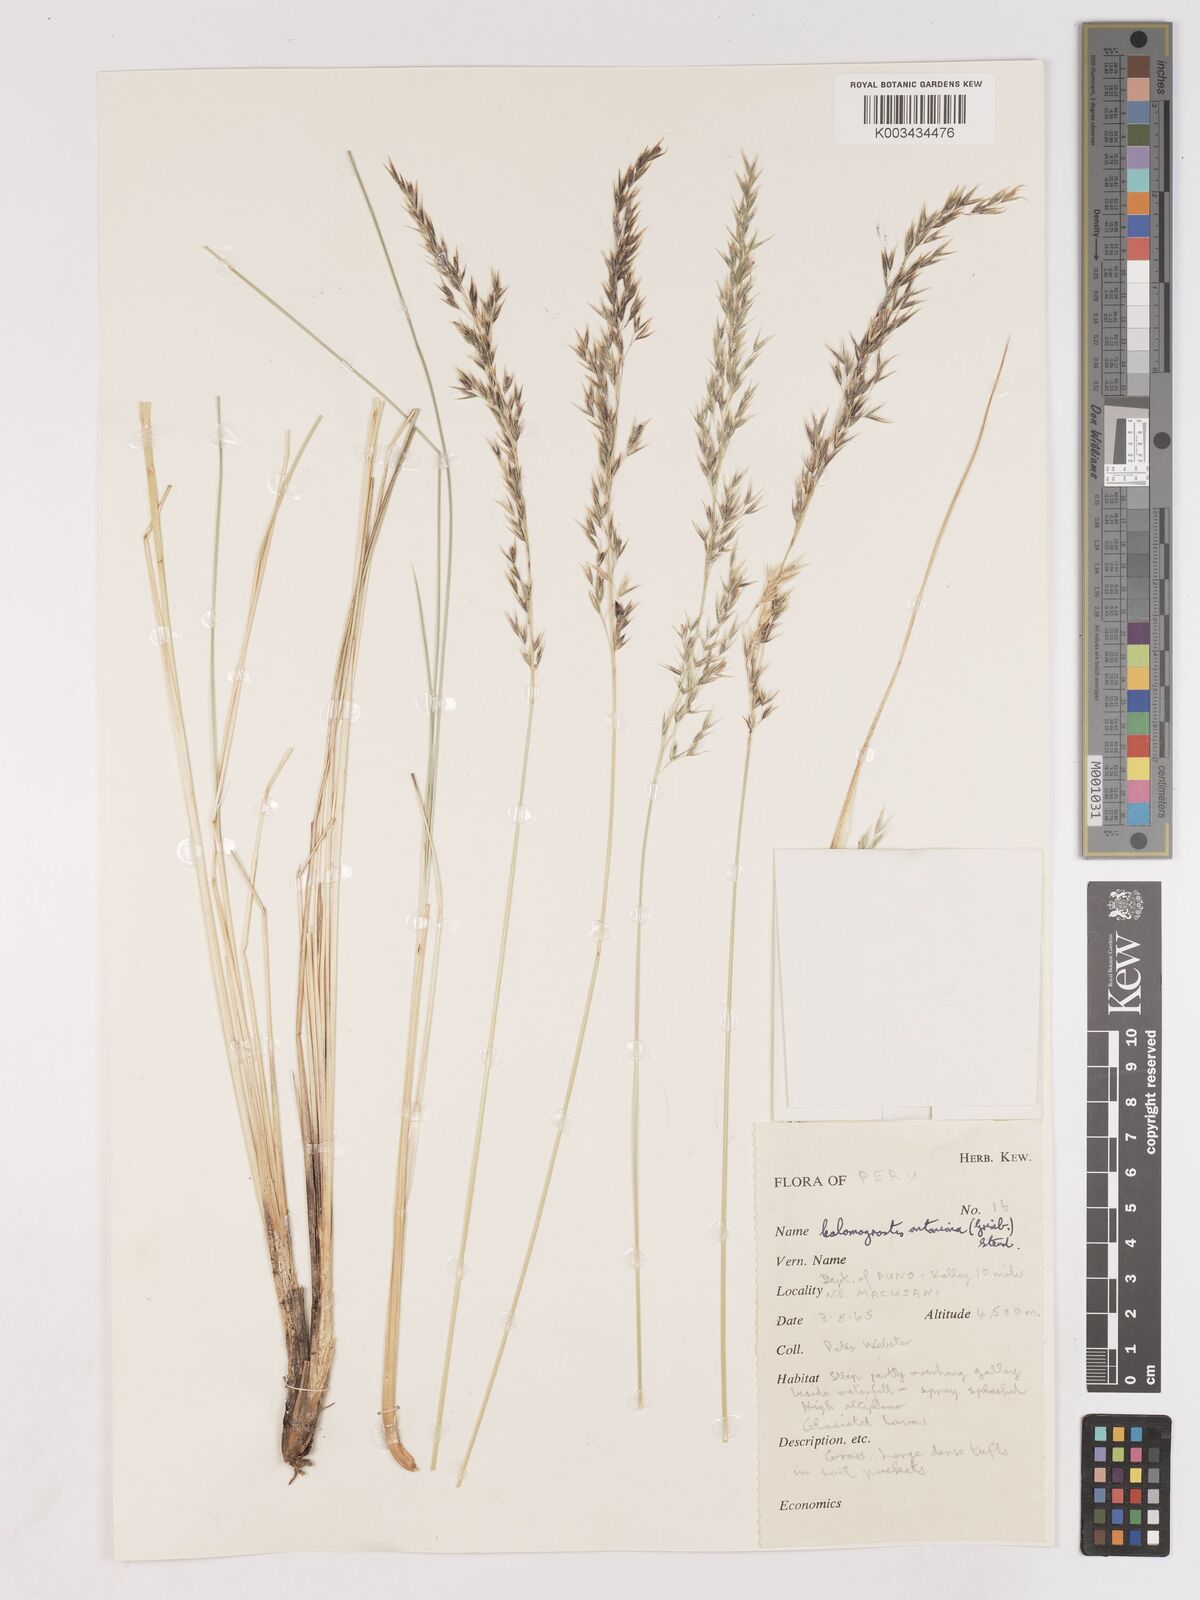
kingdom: Plantae
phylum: Tracheophyta
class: Liliopsida
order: Poales
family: Poaceae
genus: Cinnagrostis
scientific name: Cinnagrostis rigida
